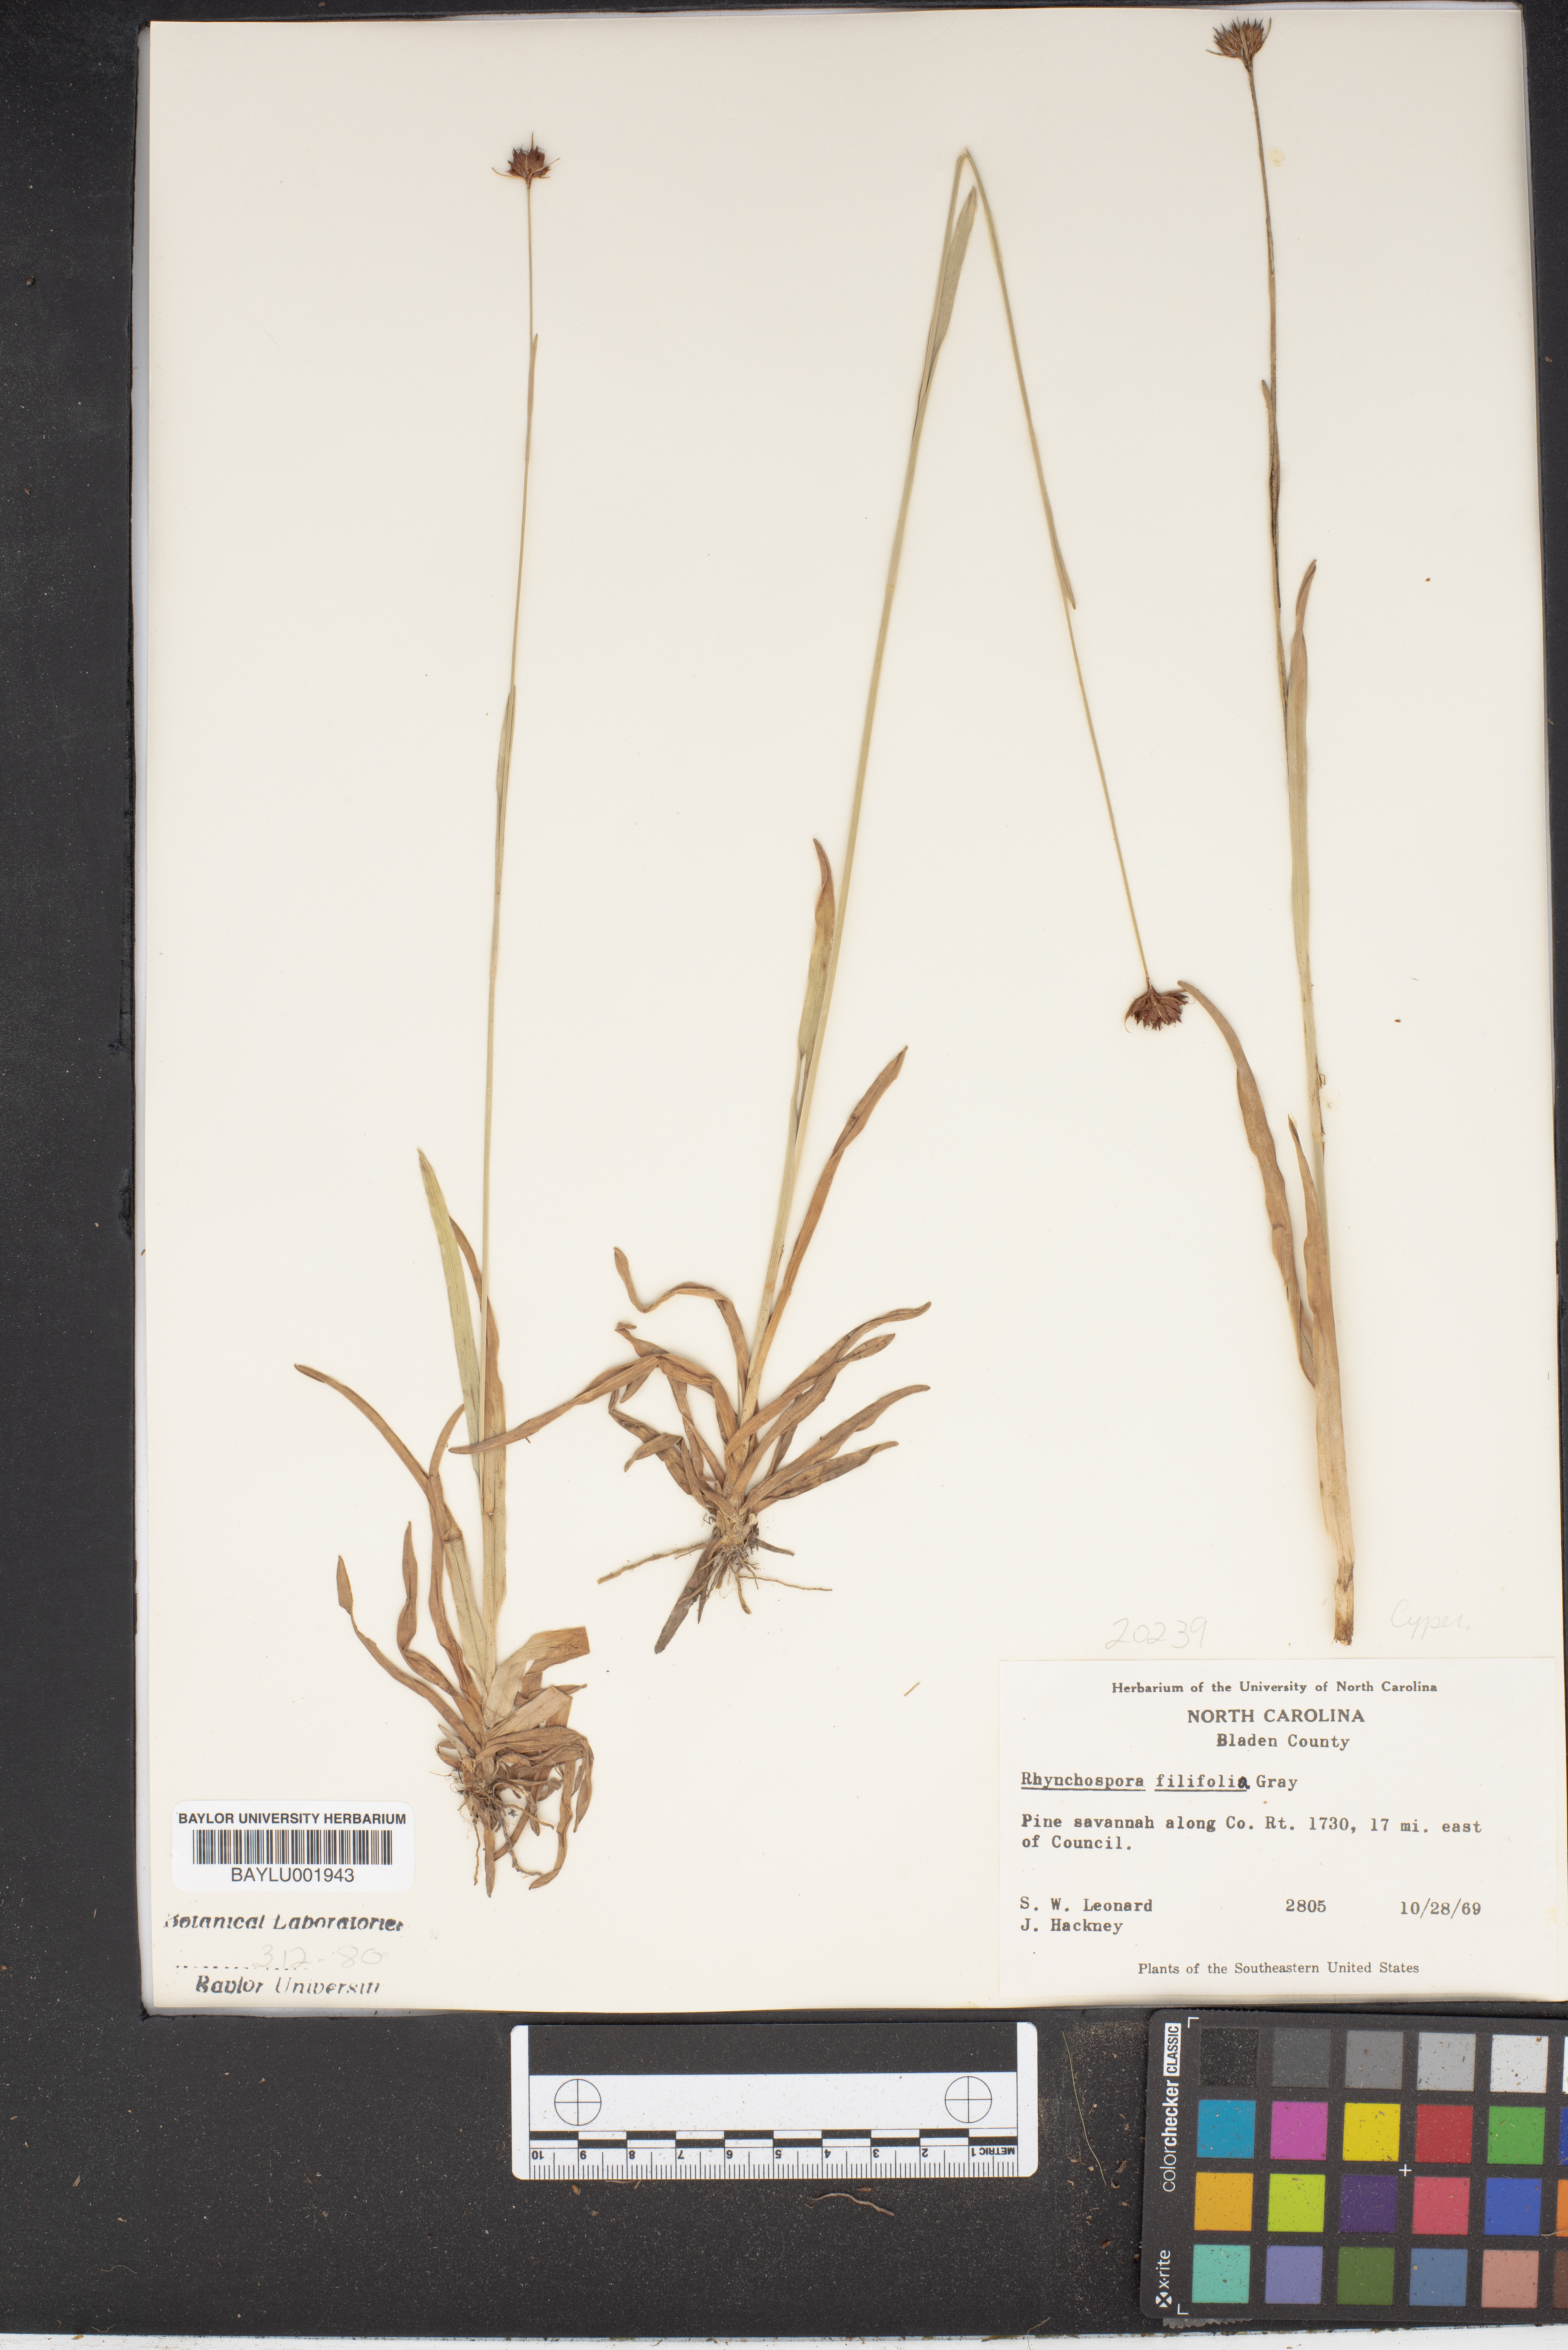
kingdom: Plantae
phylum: Tracheophyta
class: Liliopsida
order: Poales
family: Cyperaceae
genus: Rhynchospora
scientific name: Rhynchospora filifolia
